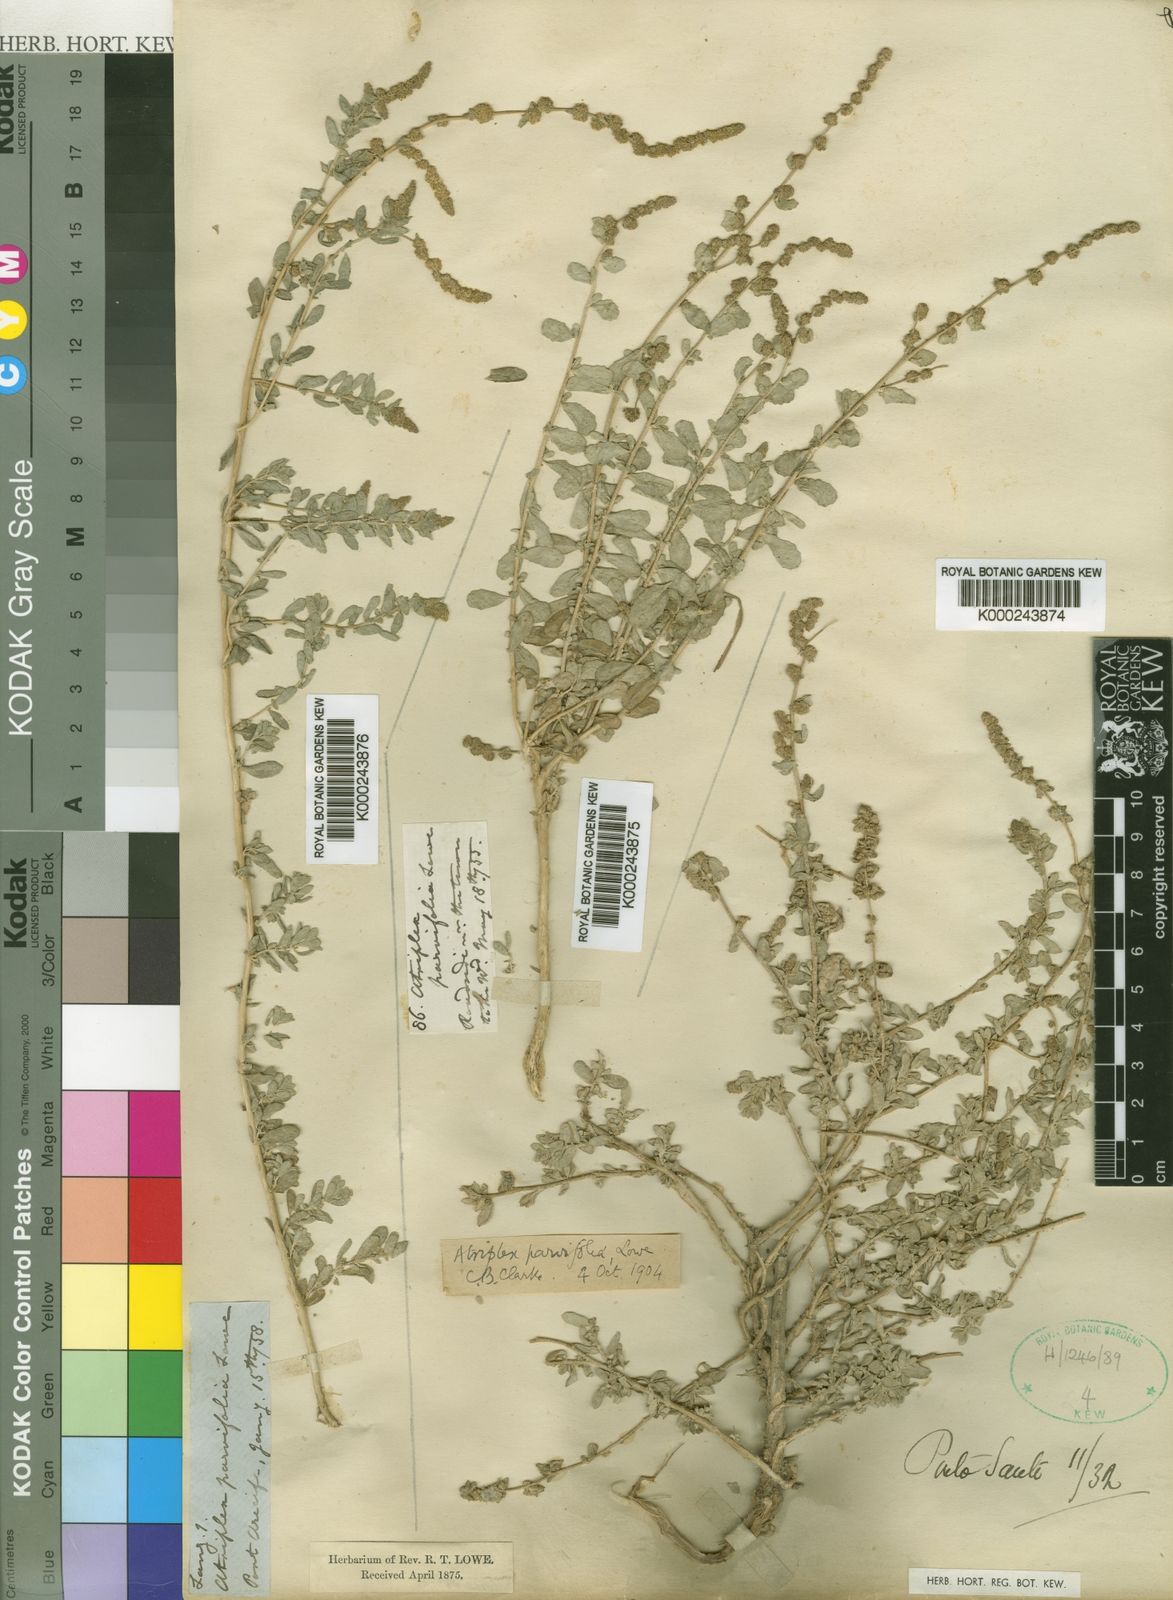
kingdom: Plantae
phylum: Tracheophyta
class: Magnoliopsida
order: Caryophyllales
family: Amaranthaceae
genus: Atriplex
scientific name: Atriplex glauca
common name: Waxy saltbush
